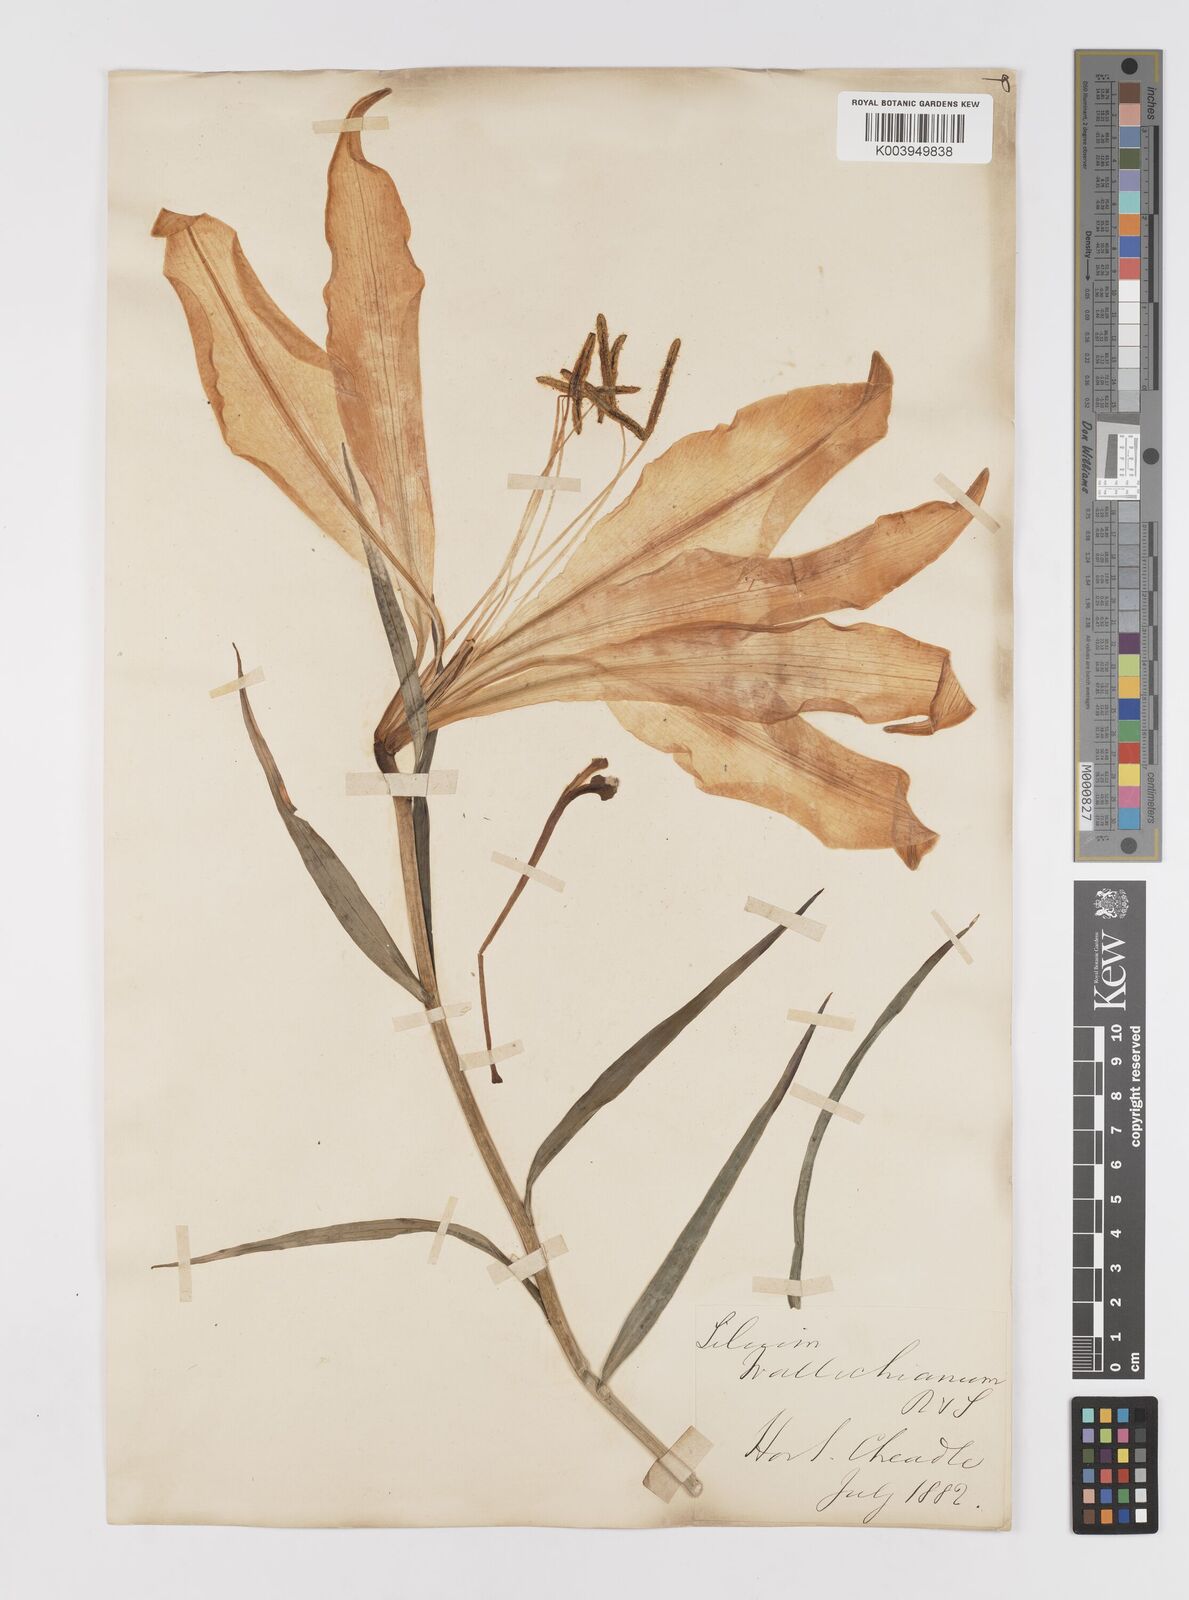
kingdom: Plantae
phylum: Tracheophyta
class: Liliopsida
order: Liliales
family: Liliaceae
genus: Lilium
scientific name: Lilium wallichianum
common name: Wallich's lily
